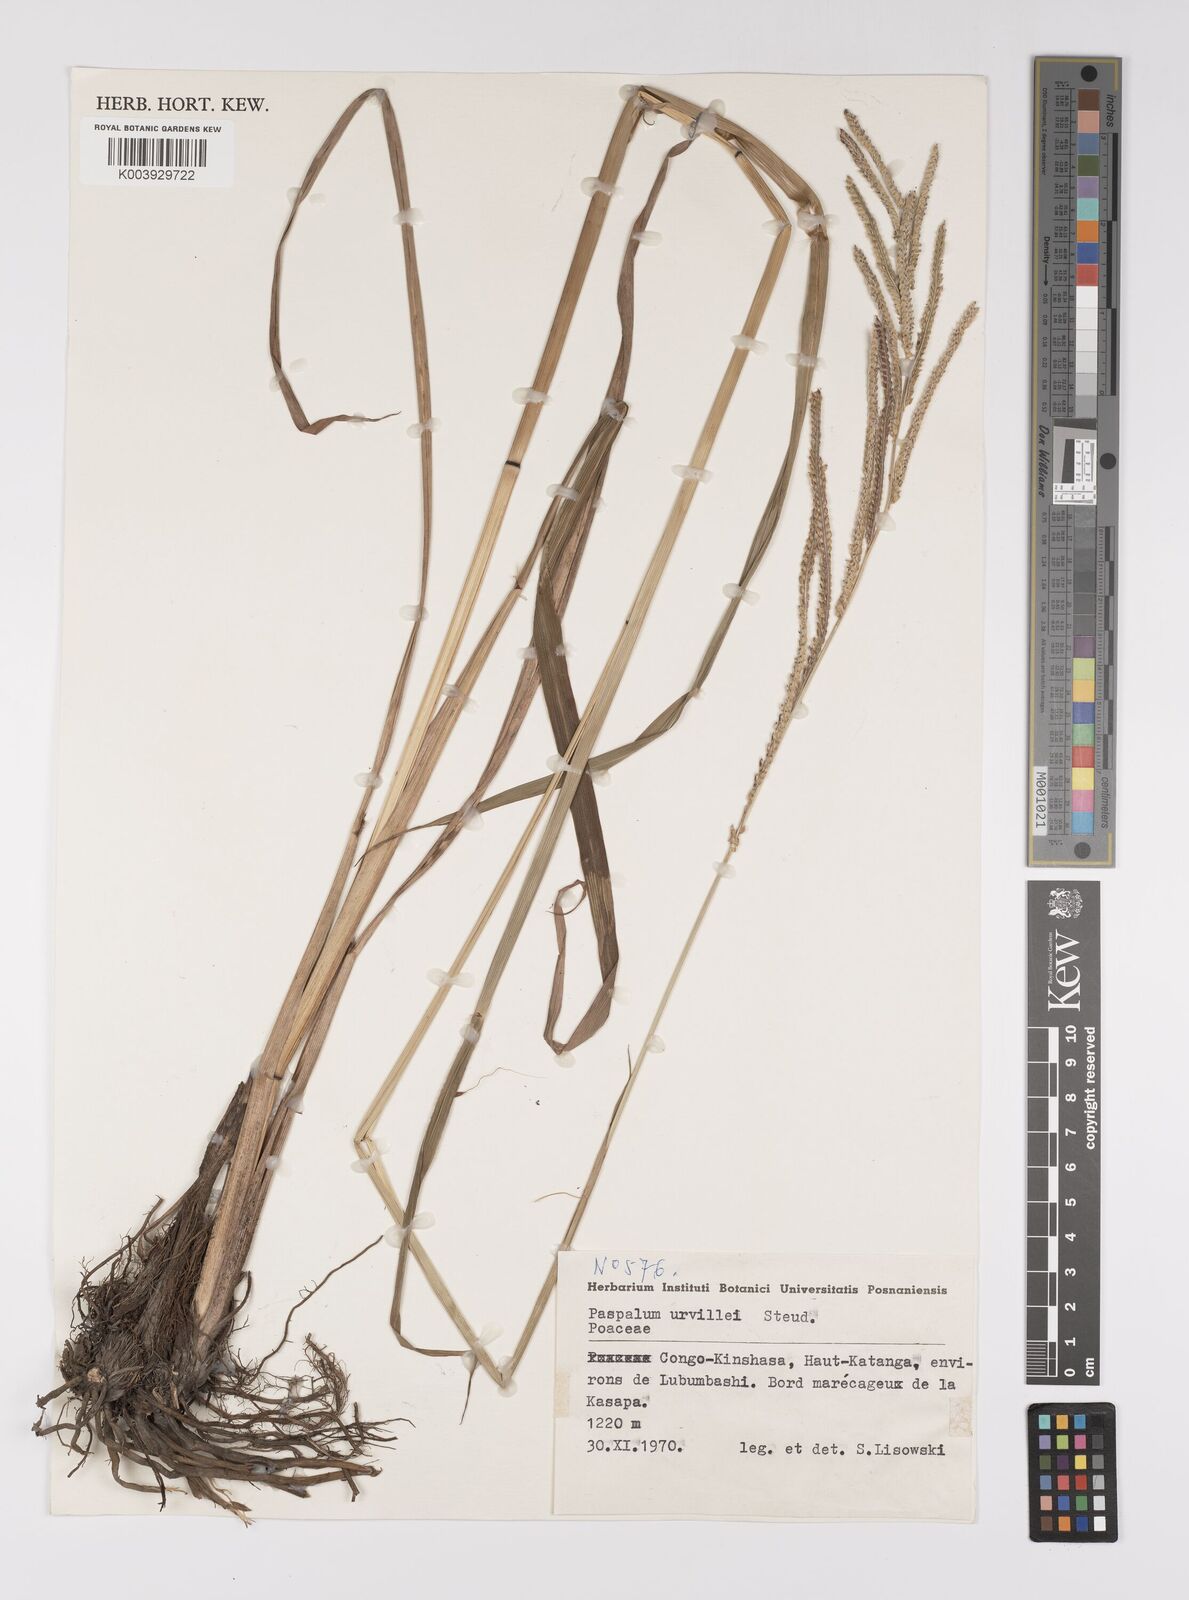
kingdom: Plantae
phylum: Tracheophyta
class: Liliopsida
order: Poales
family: Poaceae
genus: Paspalum
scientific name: Paspalum urvillei
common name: Vasey's grass
